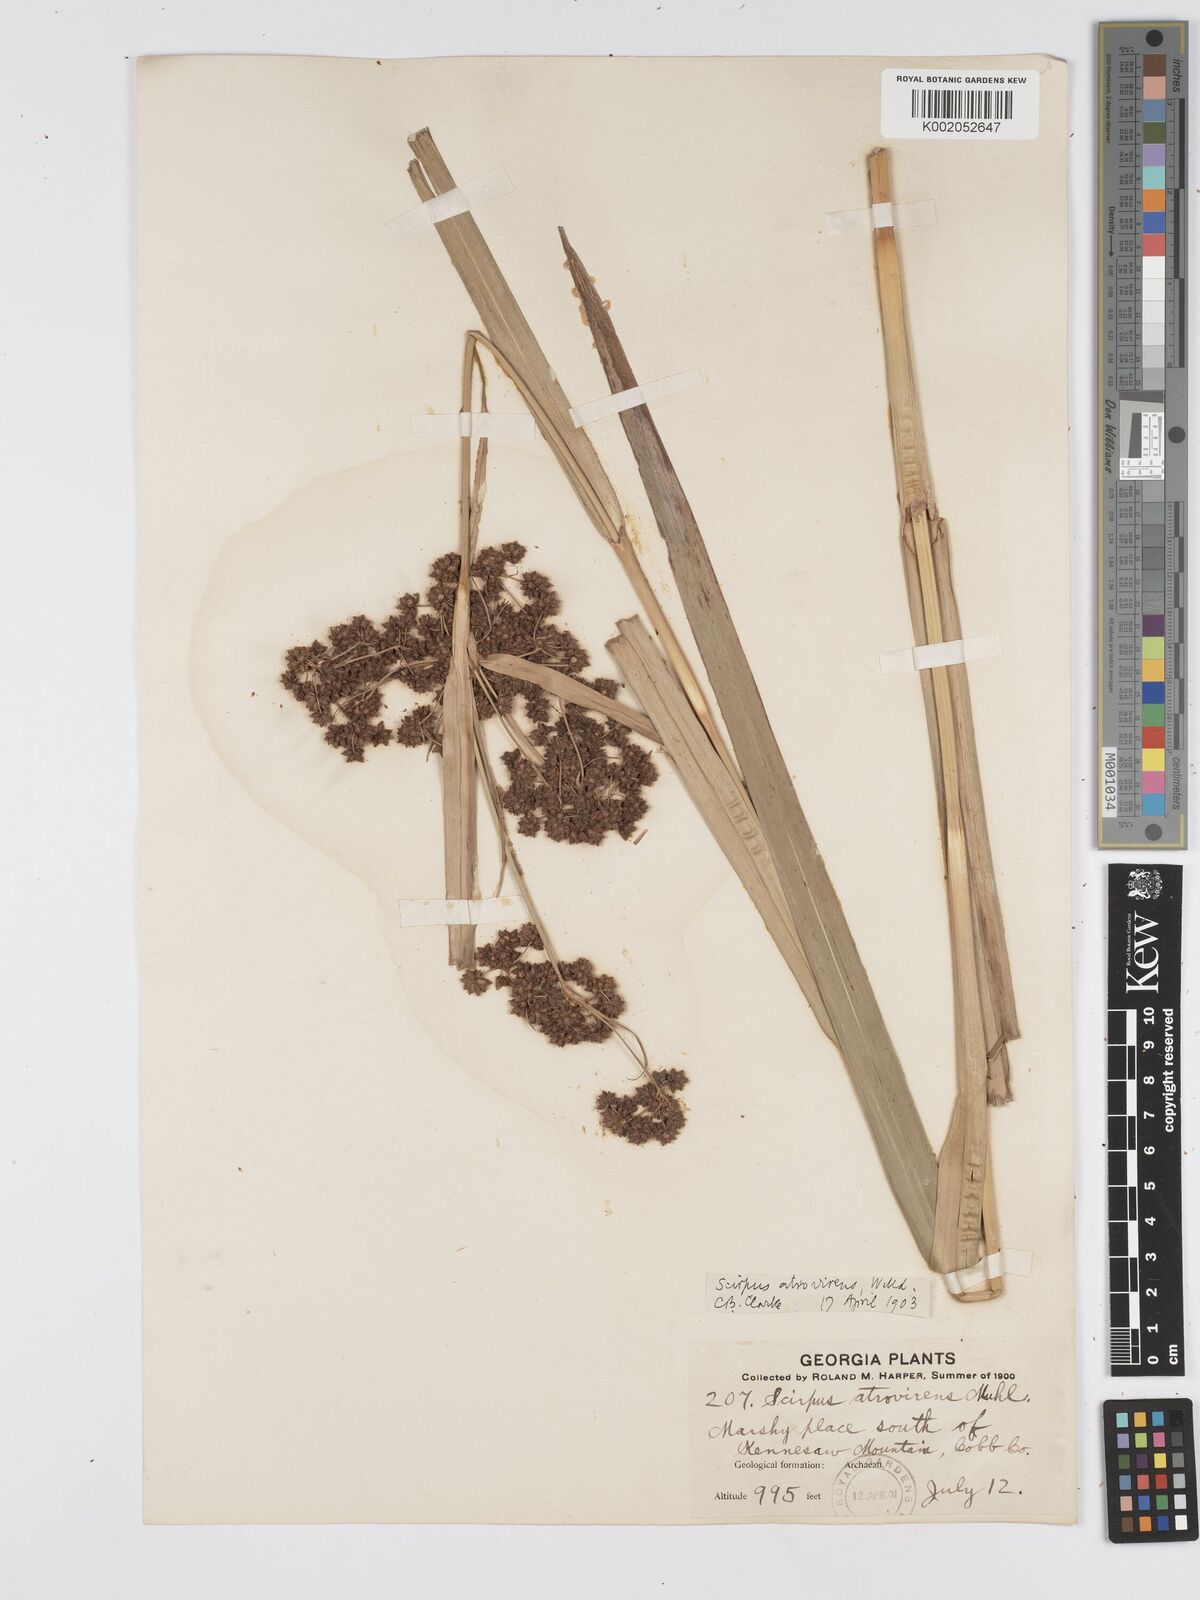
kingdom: Plantae
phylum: Tracheophyta
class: Liliopsida
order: Poales
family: Cyperaceae
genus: Scirpus
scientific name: Scirpus atrovirens
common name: Black bulrush
